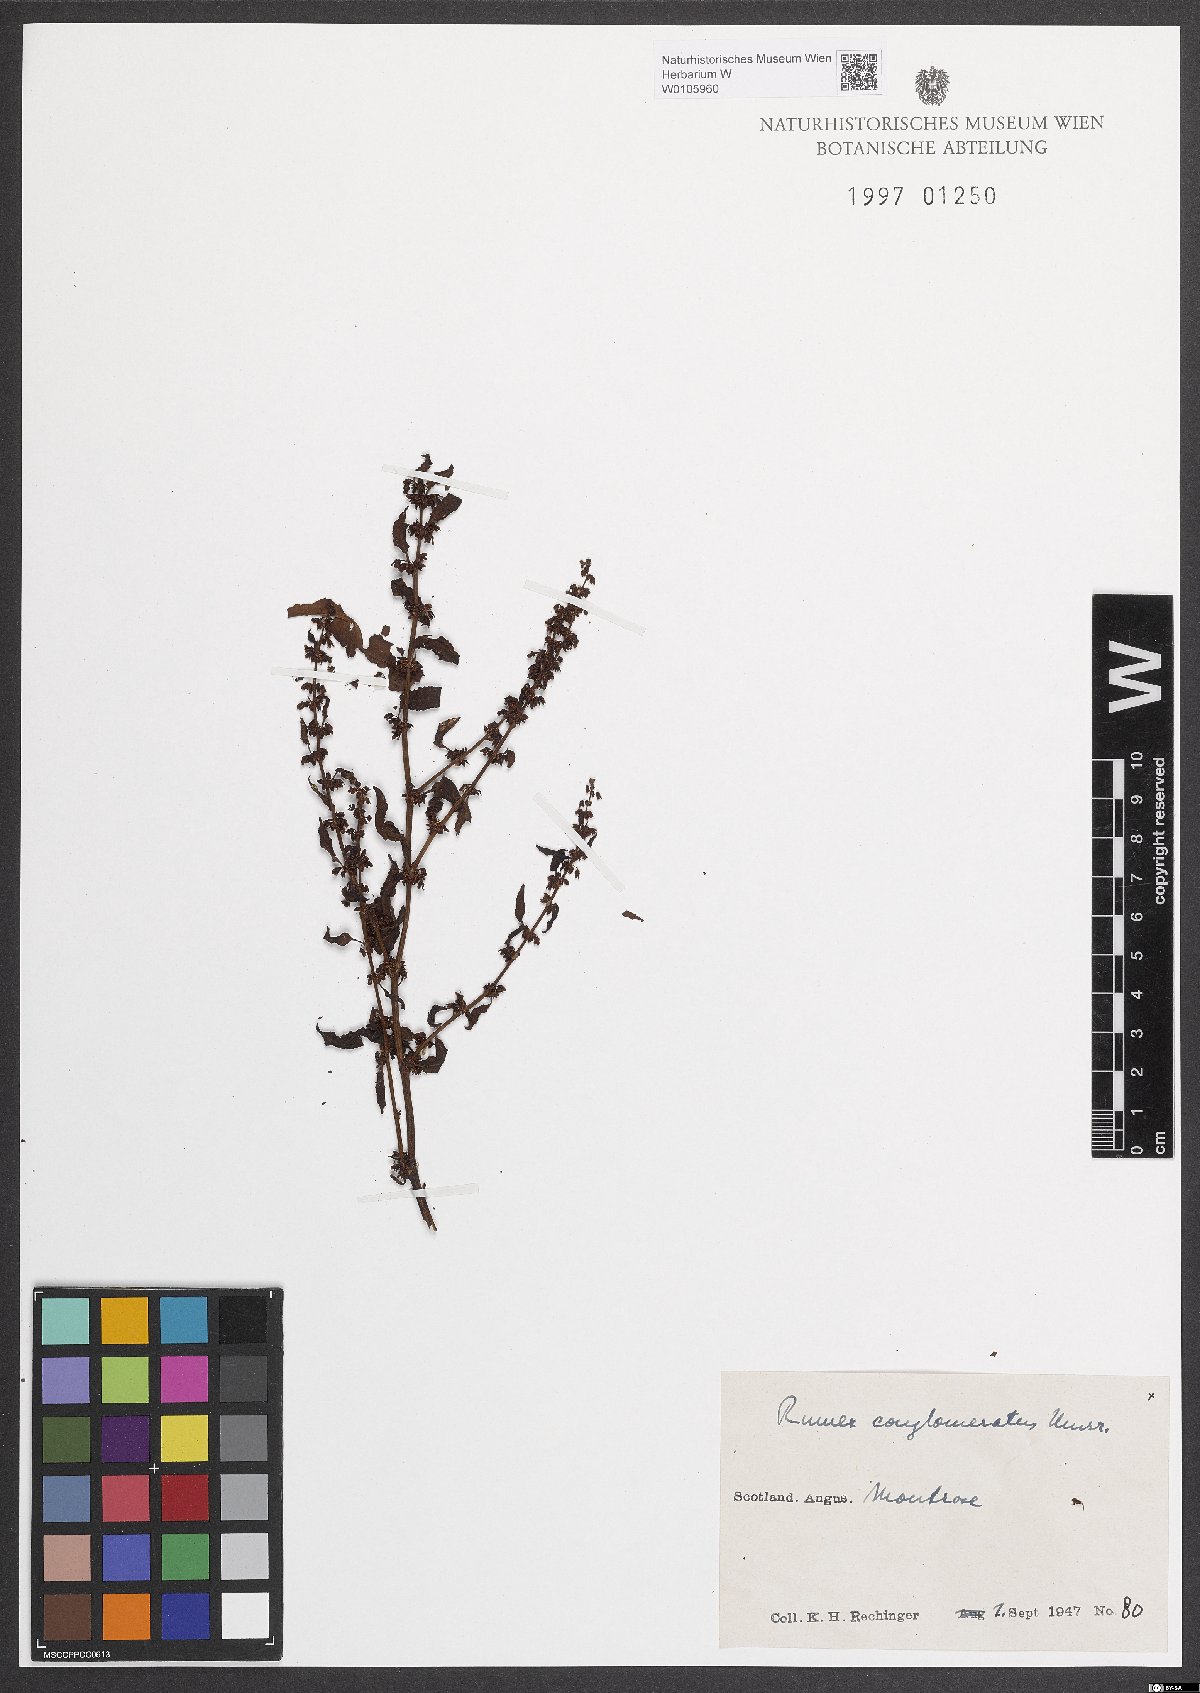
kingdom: Plantae
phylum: Tracheophyta
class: Magnoliopsida
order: Caryophyllales
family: Polygonaceae
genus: Rumex
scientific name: Rumex conglomeratus
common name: Clustered dock
